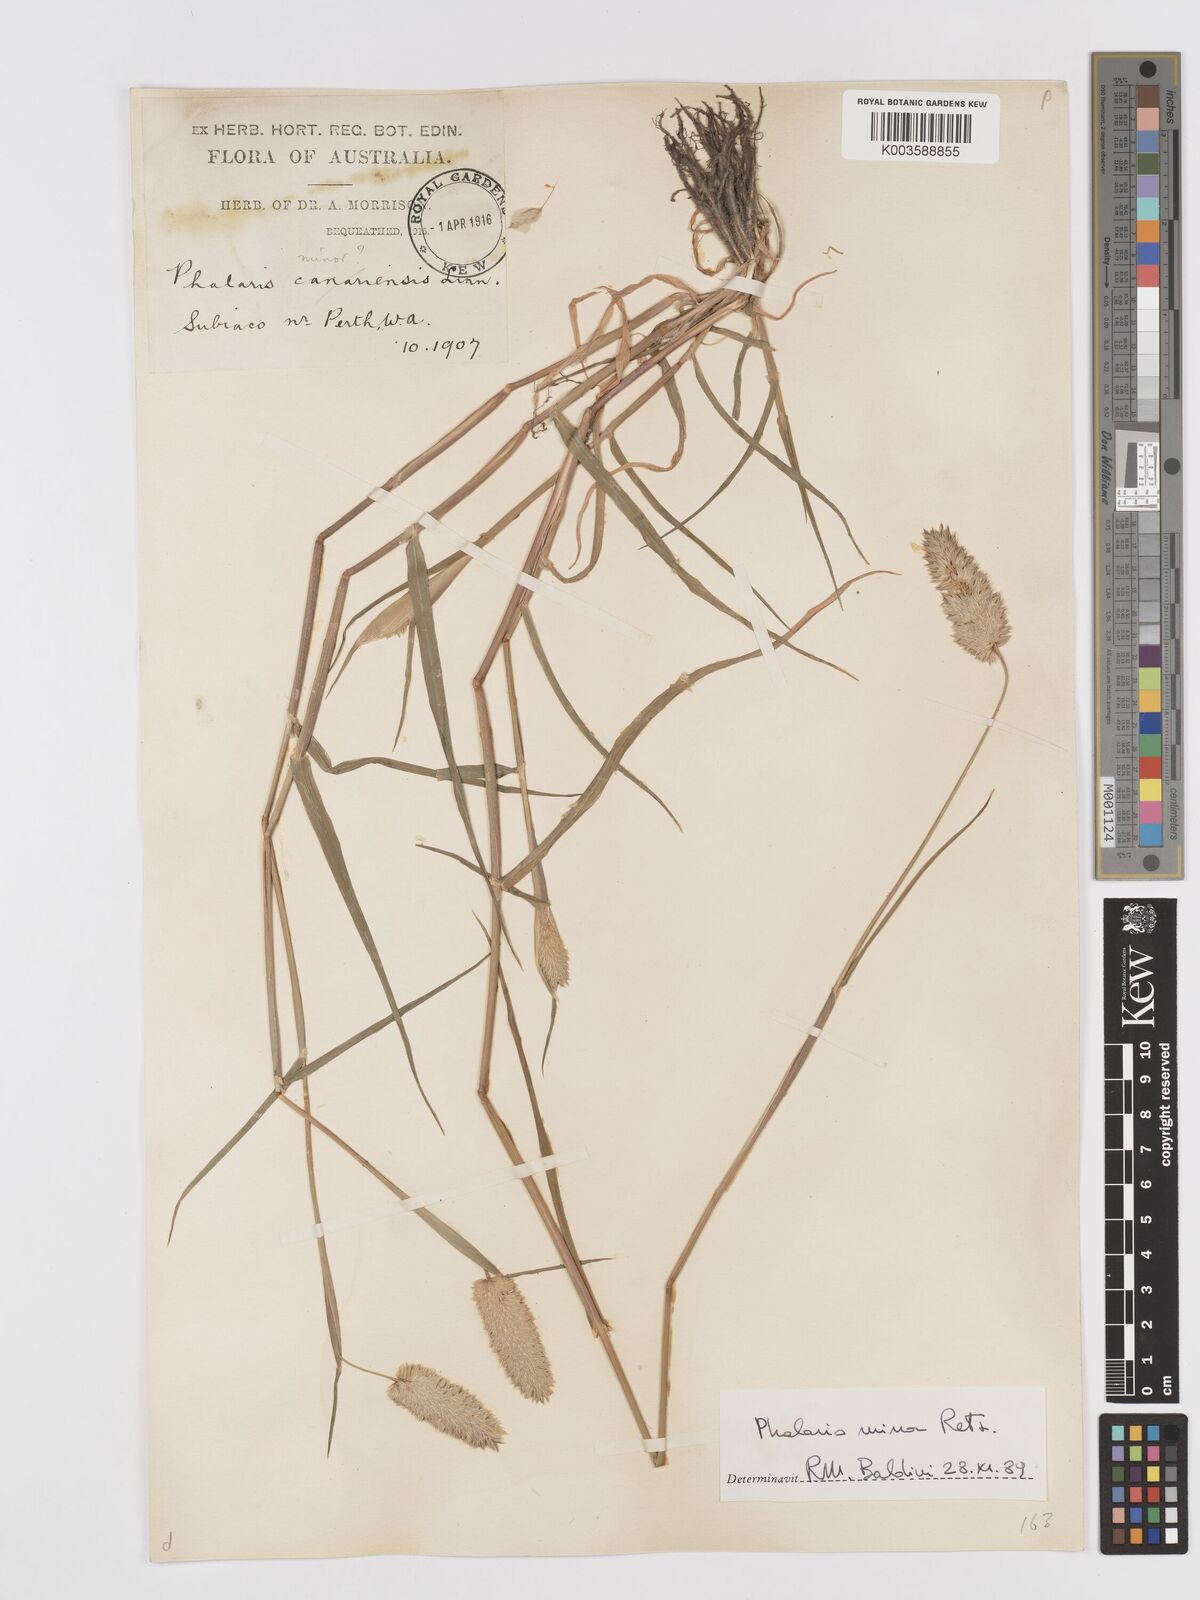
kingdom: Plantae
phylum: Tracheophyta
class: Liliopsida
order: Poales
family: Poaceae
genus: Phalaris
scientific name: Phalaris minor
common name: Littleseed canarygrass
